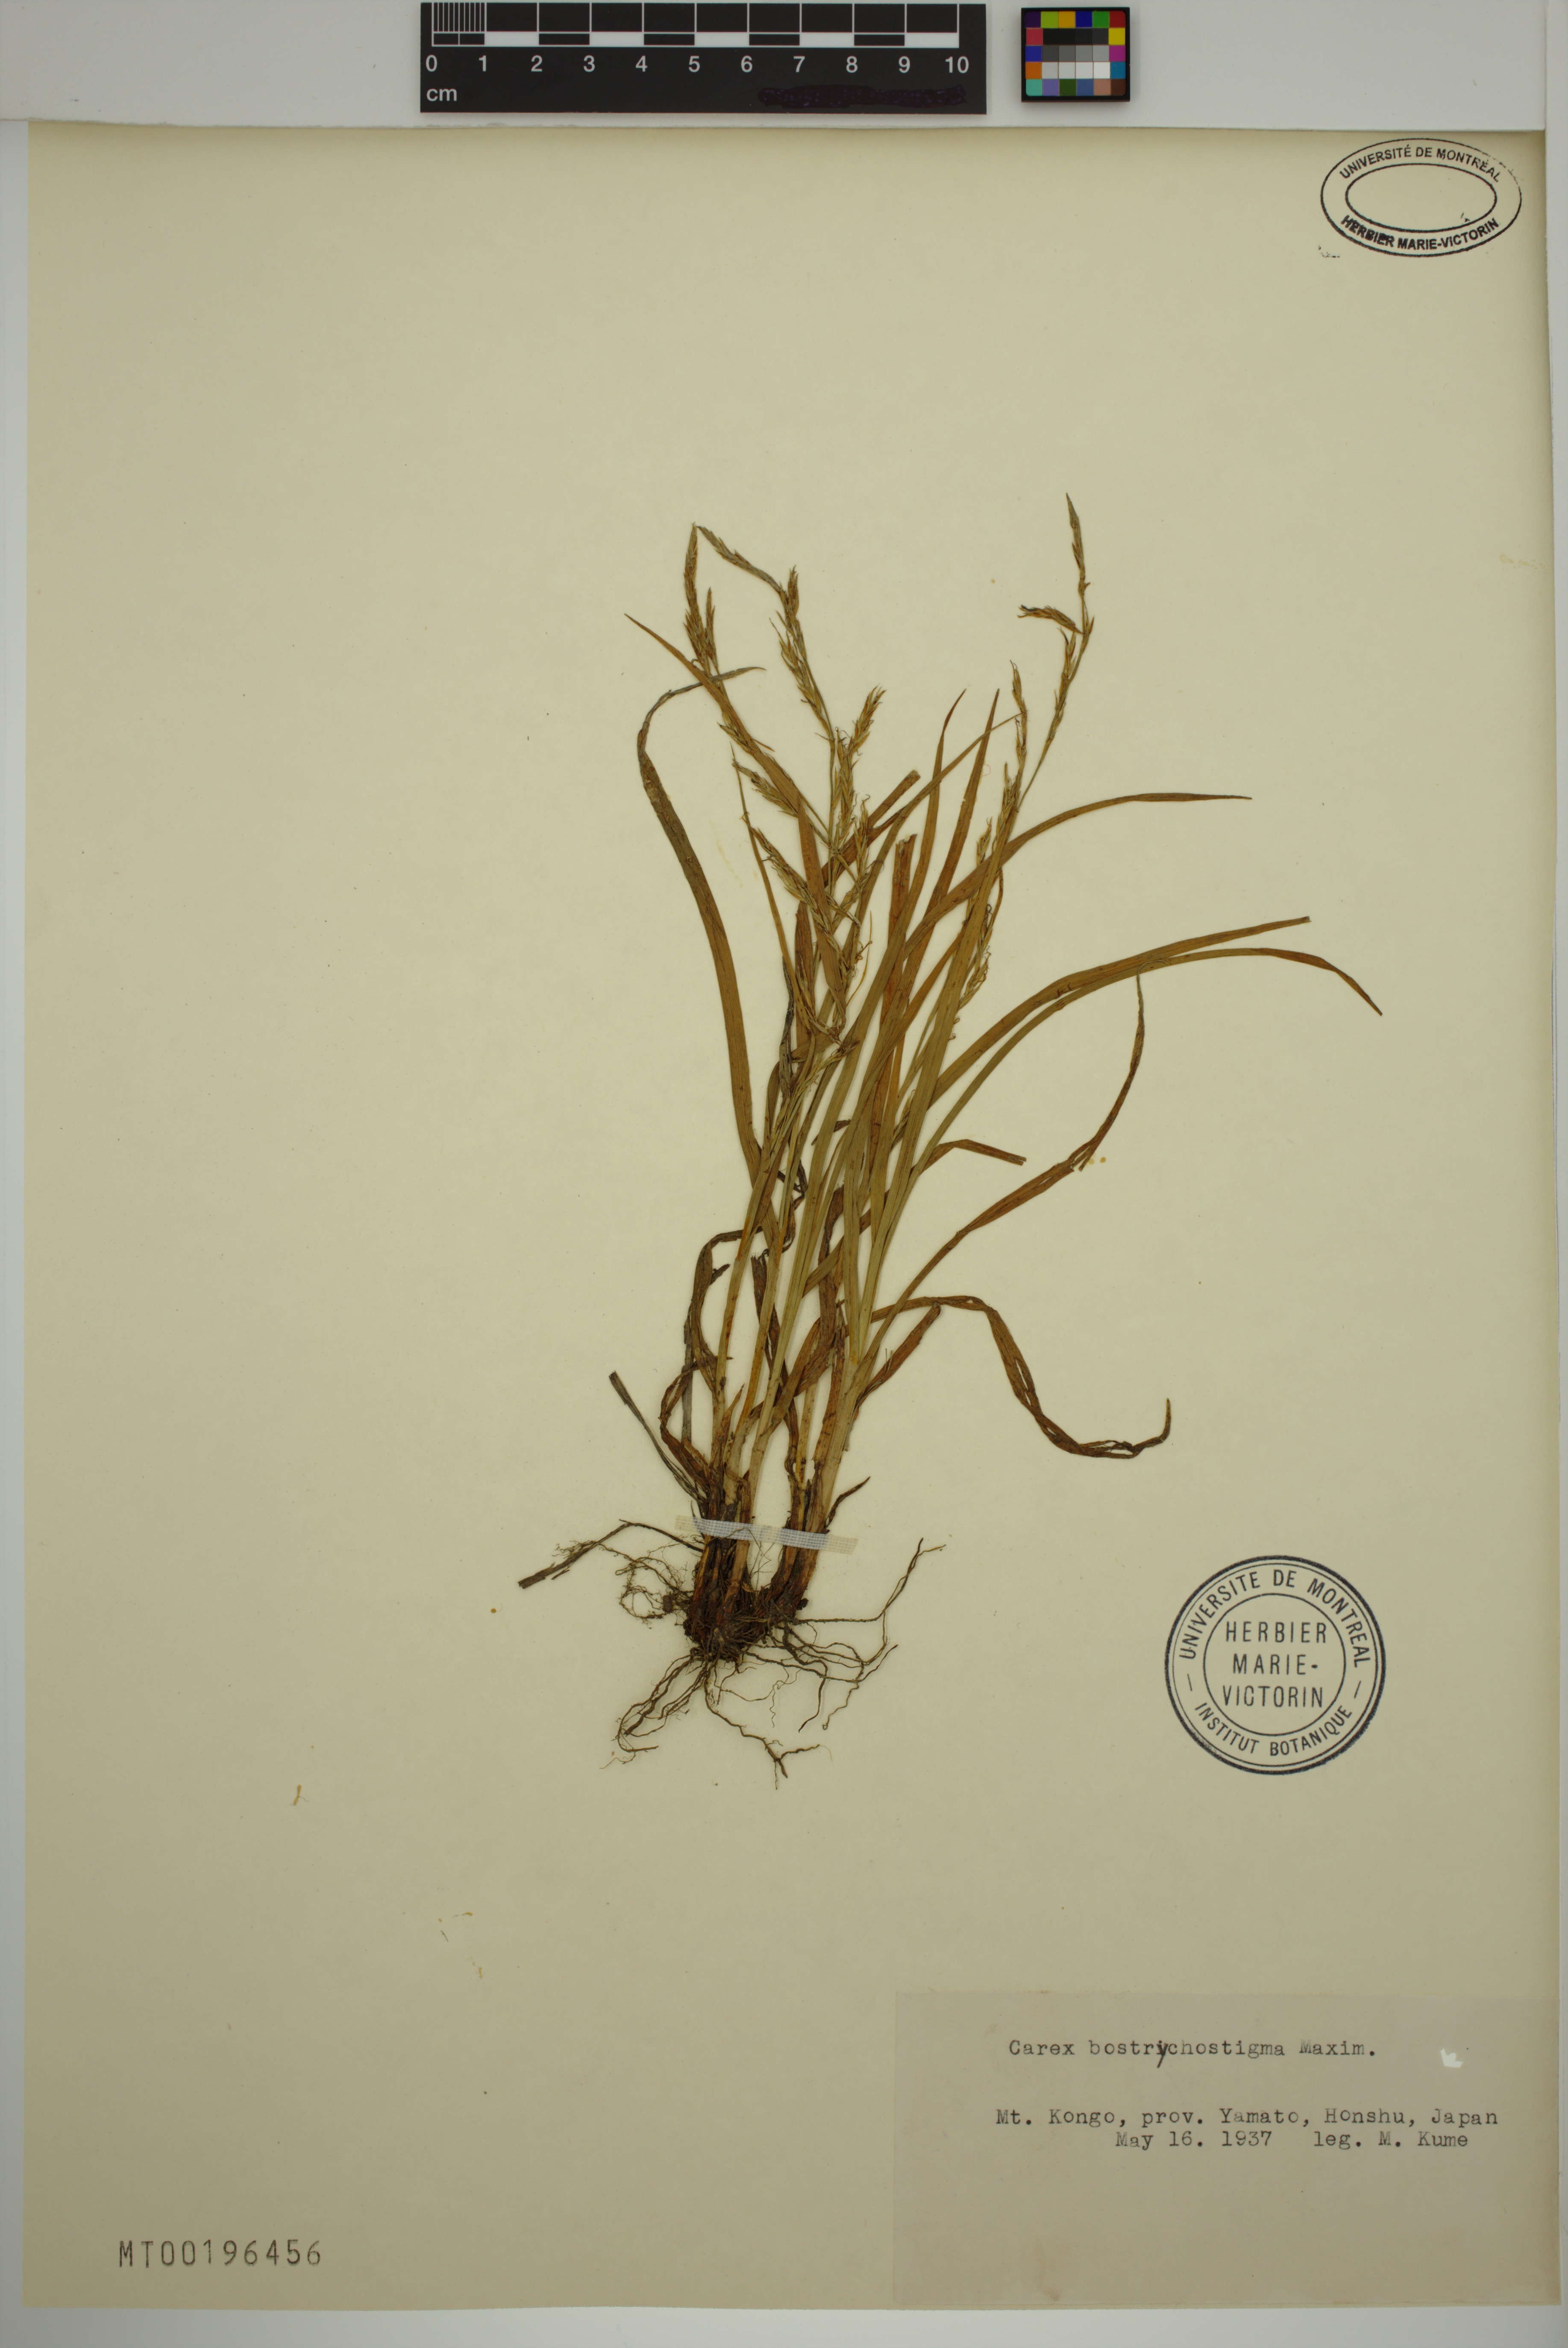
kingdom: Plantae
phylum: Tracheophyta
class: Liliopsida
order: Poales
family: Cyperaceae
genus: Carex
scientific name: Carex bostrychostigma
